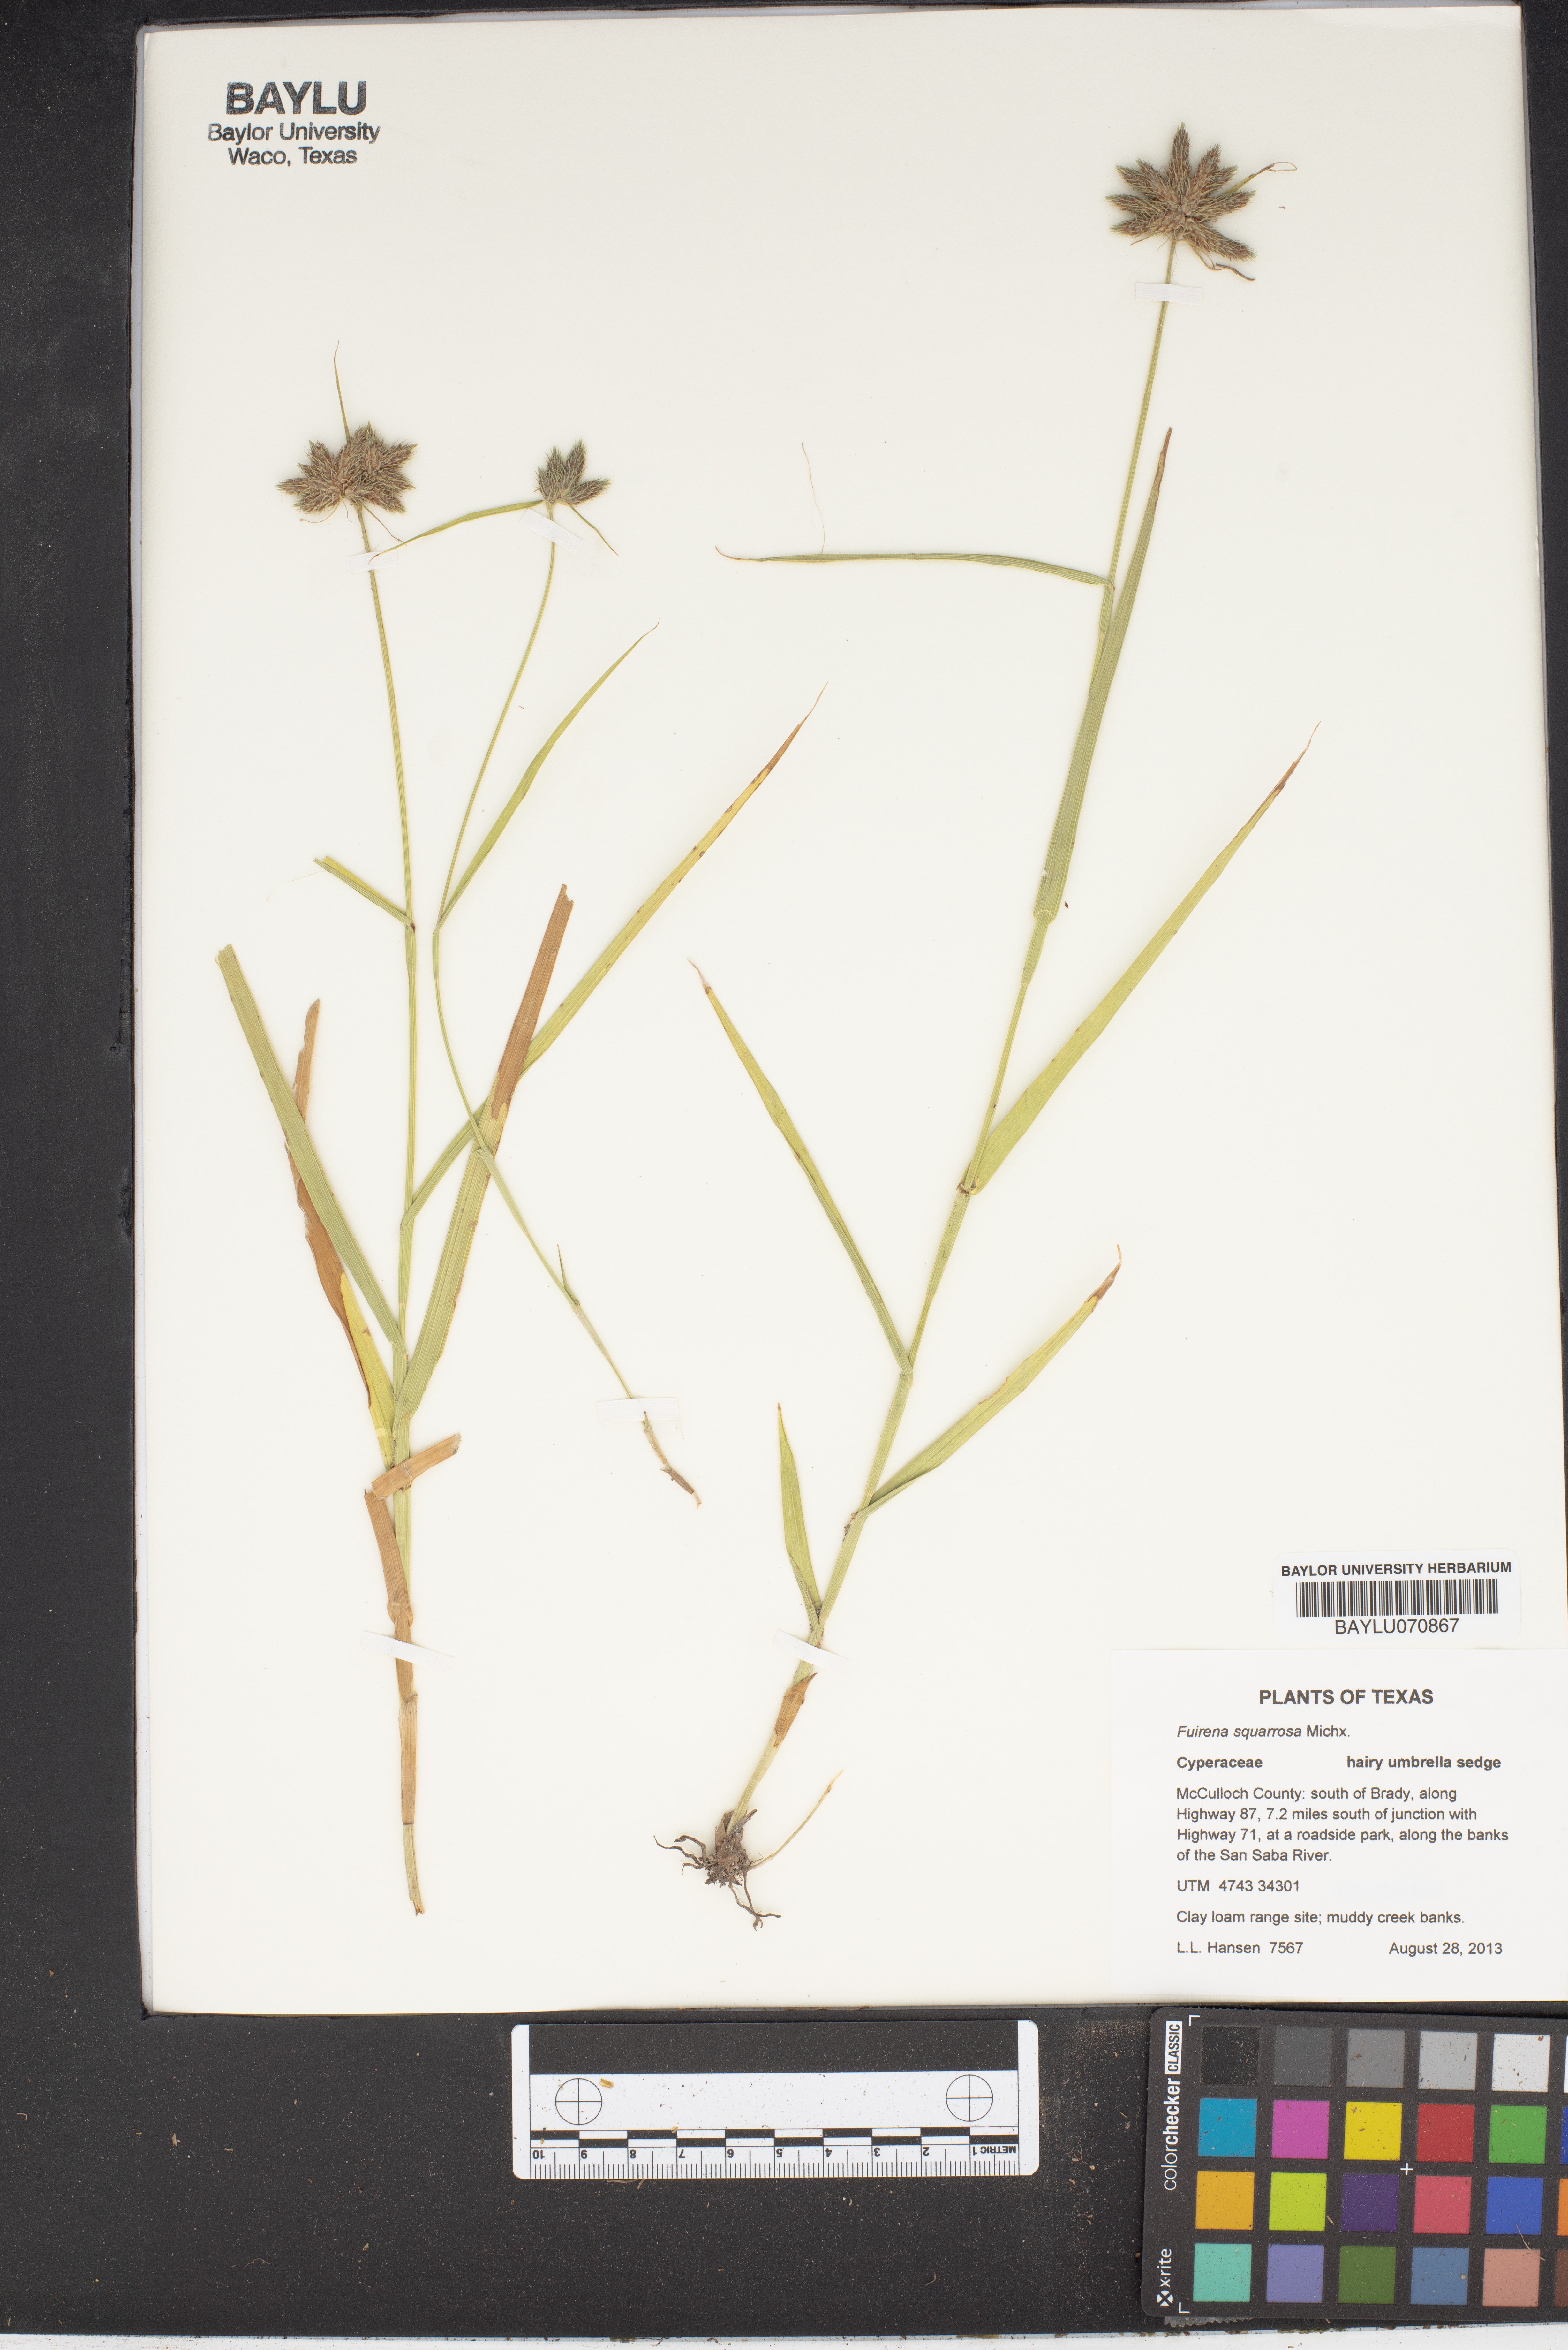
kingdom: Plantae
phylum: Tracheophyta
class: Liliopsida
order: Poales
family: Cyperaceae
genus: Fuirena
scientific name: Fuirena squarrosa
